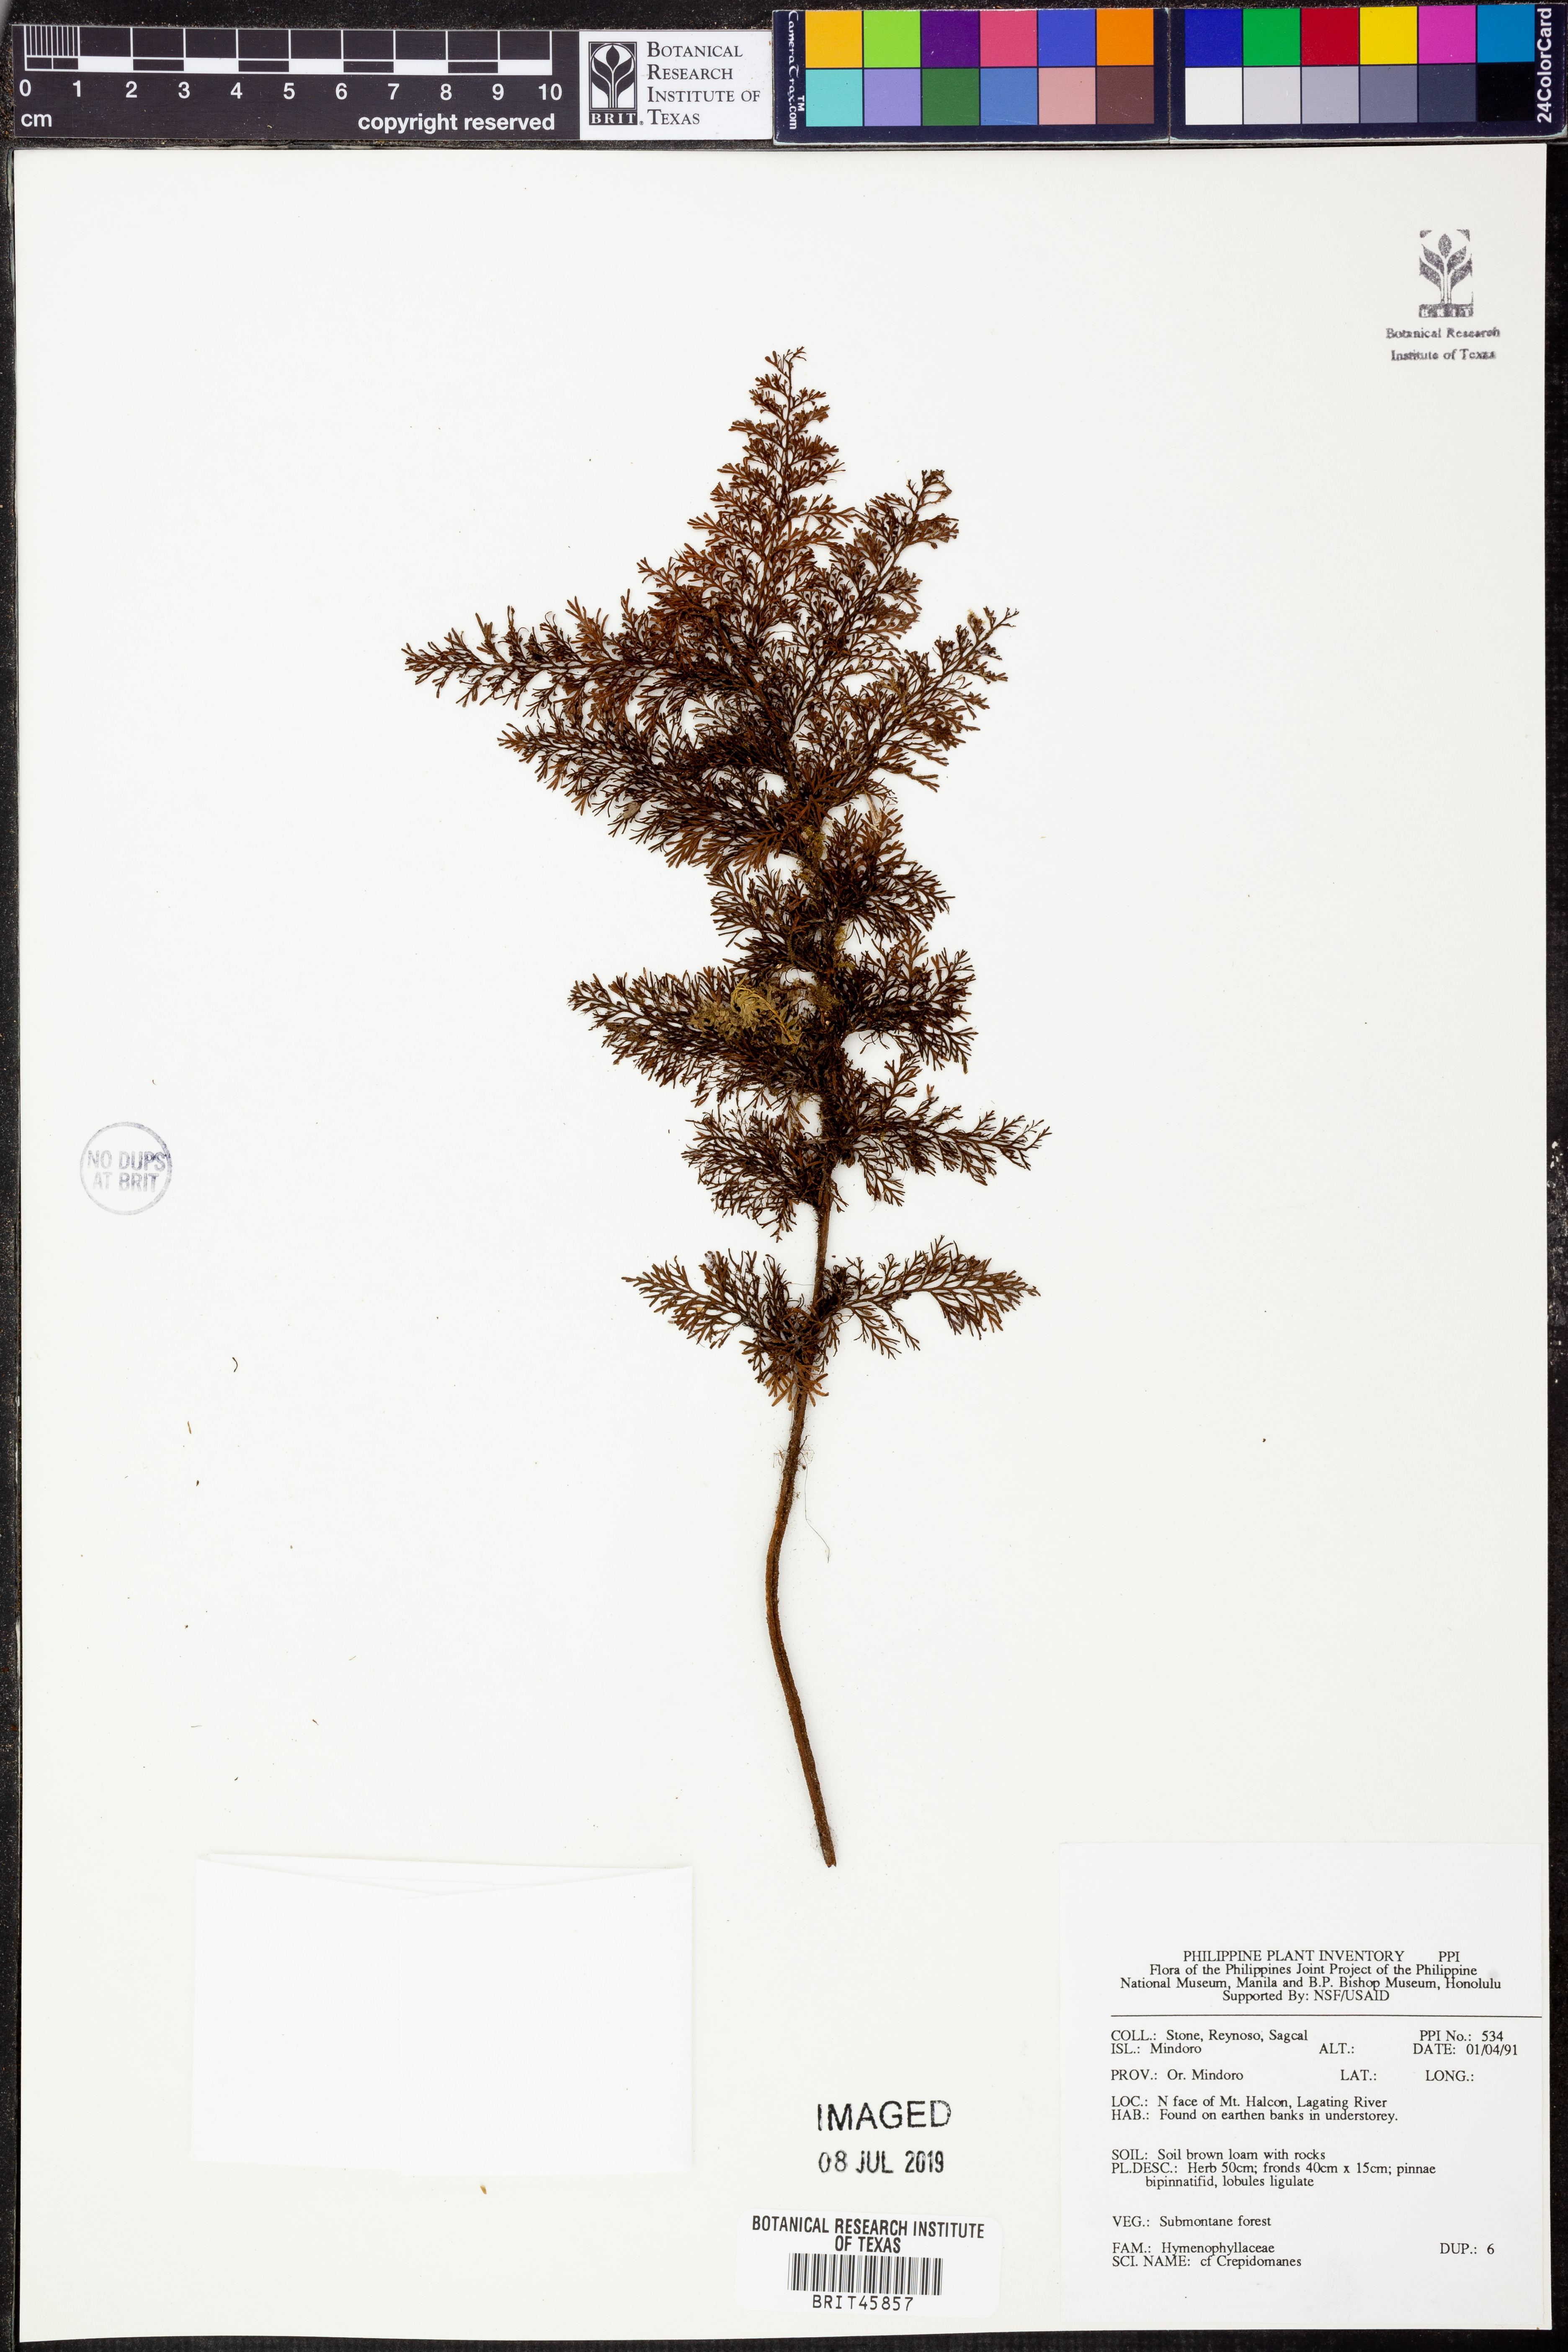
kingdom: Plantae
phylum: Tracheophyta
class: Polypodiopsida
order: Hymenophyllales
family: Hymenophyllaceae
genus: Crepidomanes
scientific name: Crepidomanes
